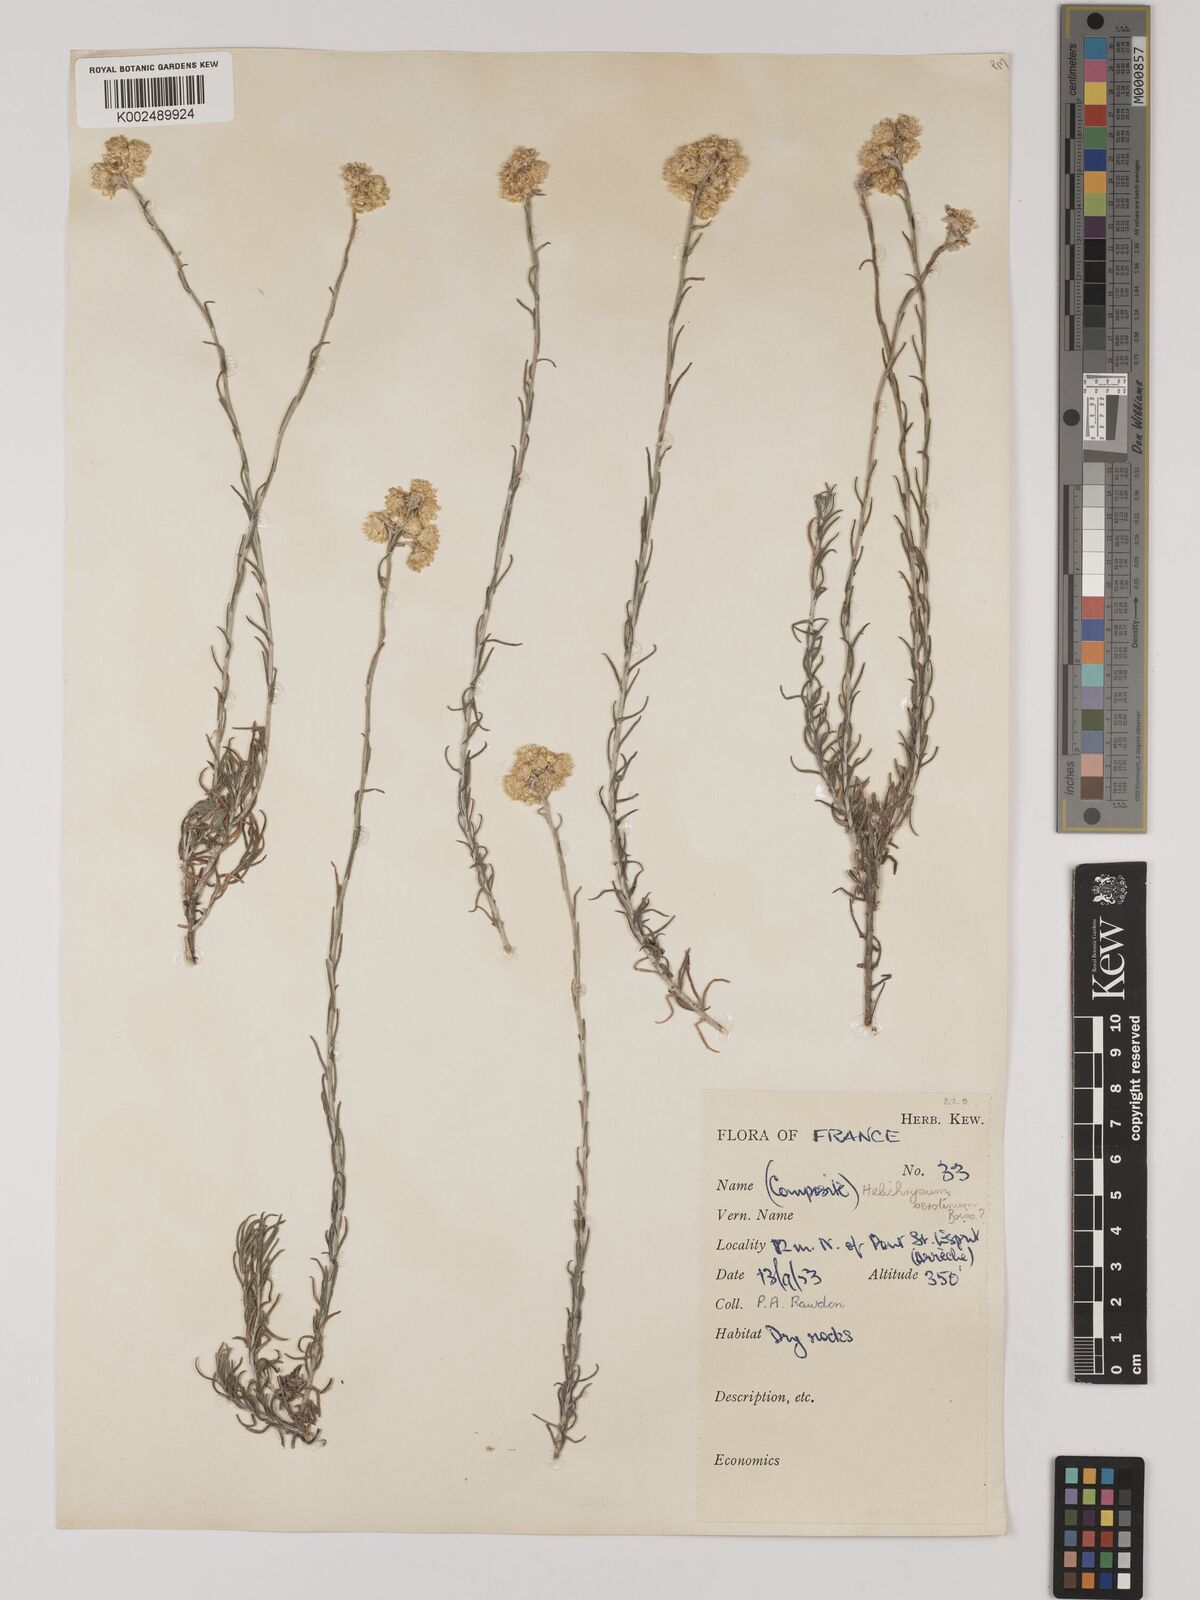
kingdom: Plantae
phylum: Tracheophyta
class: Magnoliopsida
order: Asterales
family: Asteraceae
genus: Helichrysum
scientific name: Helichrysum
